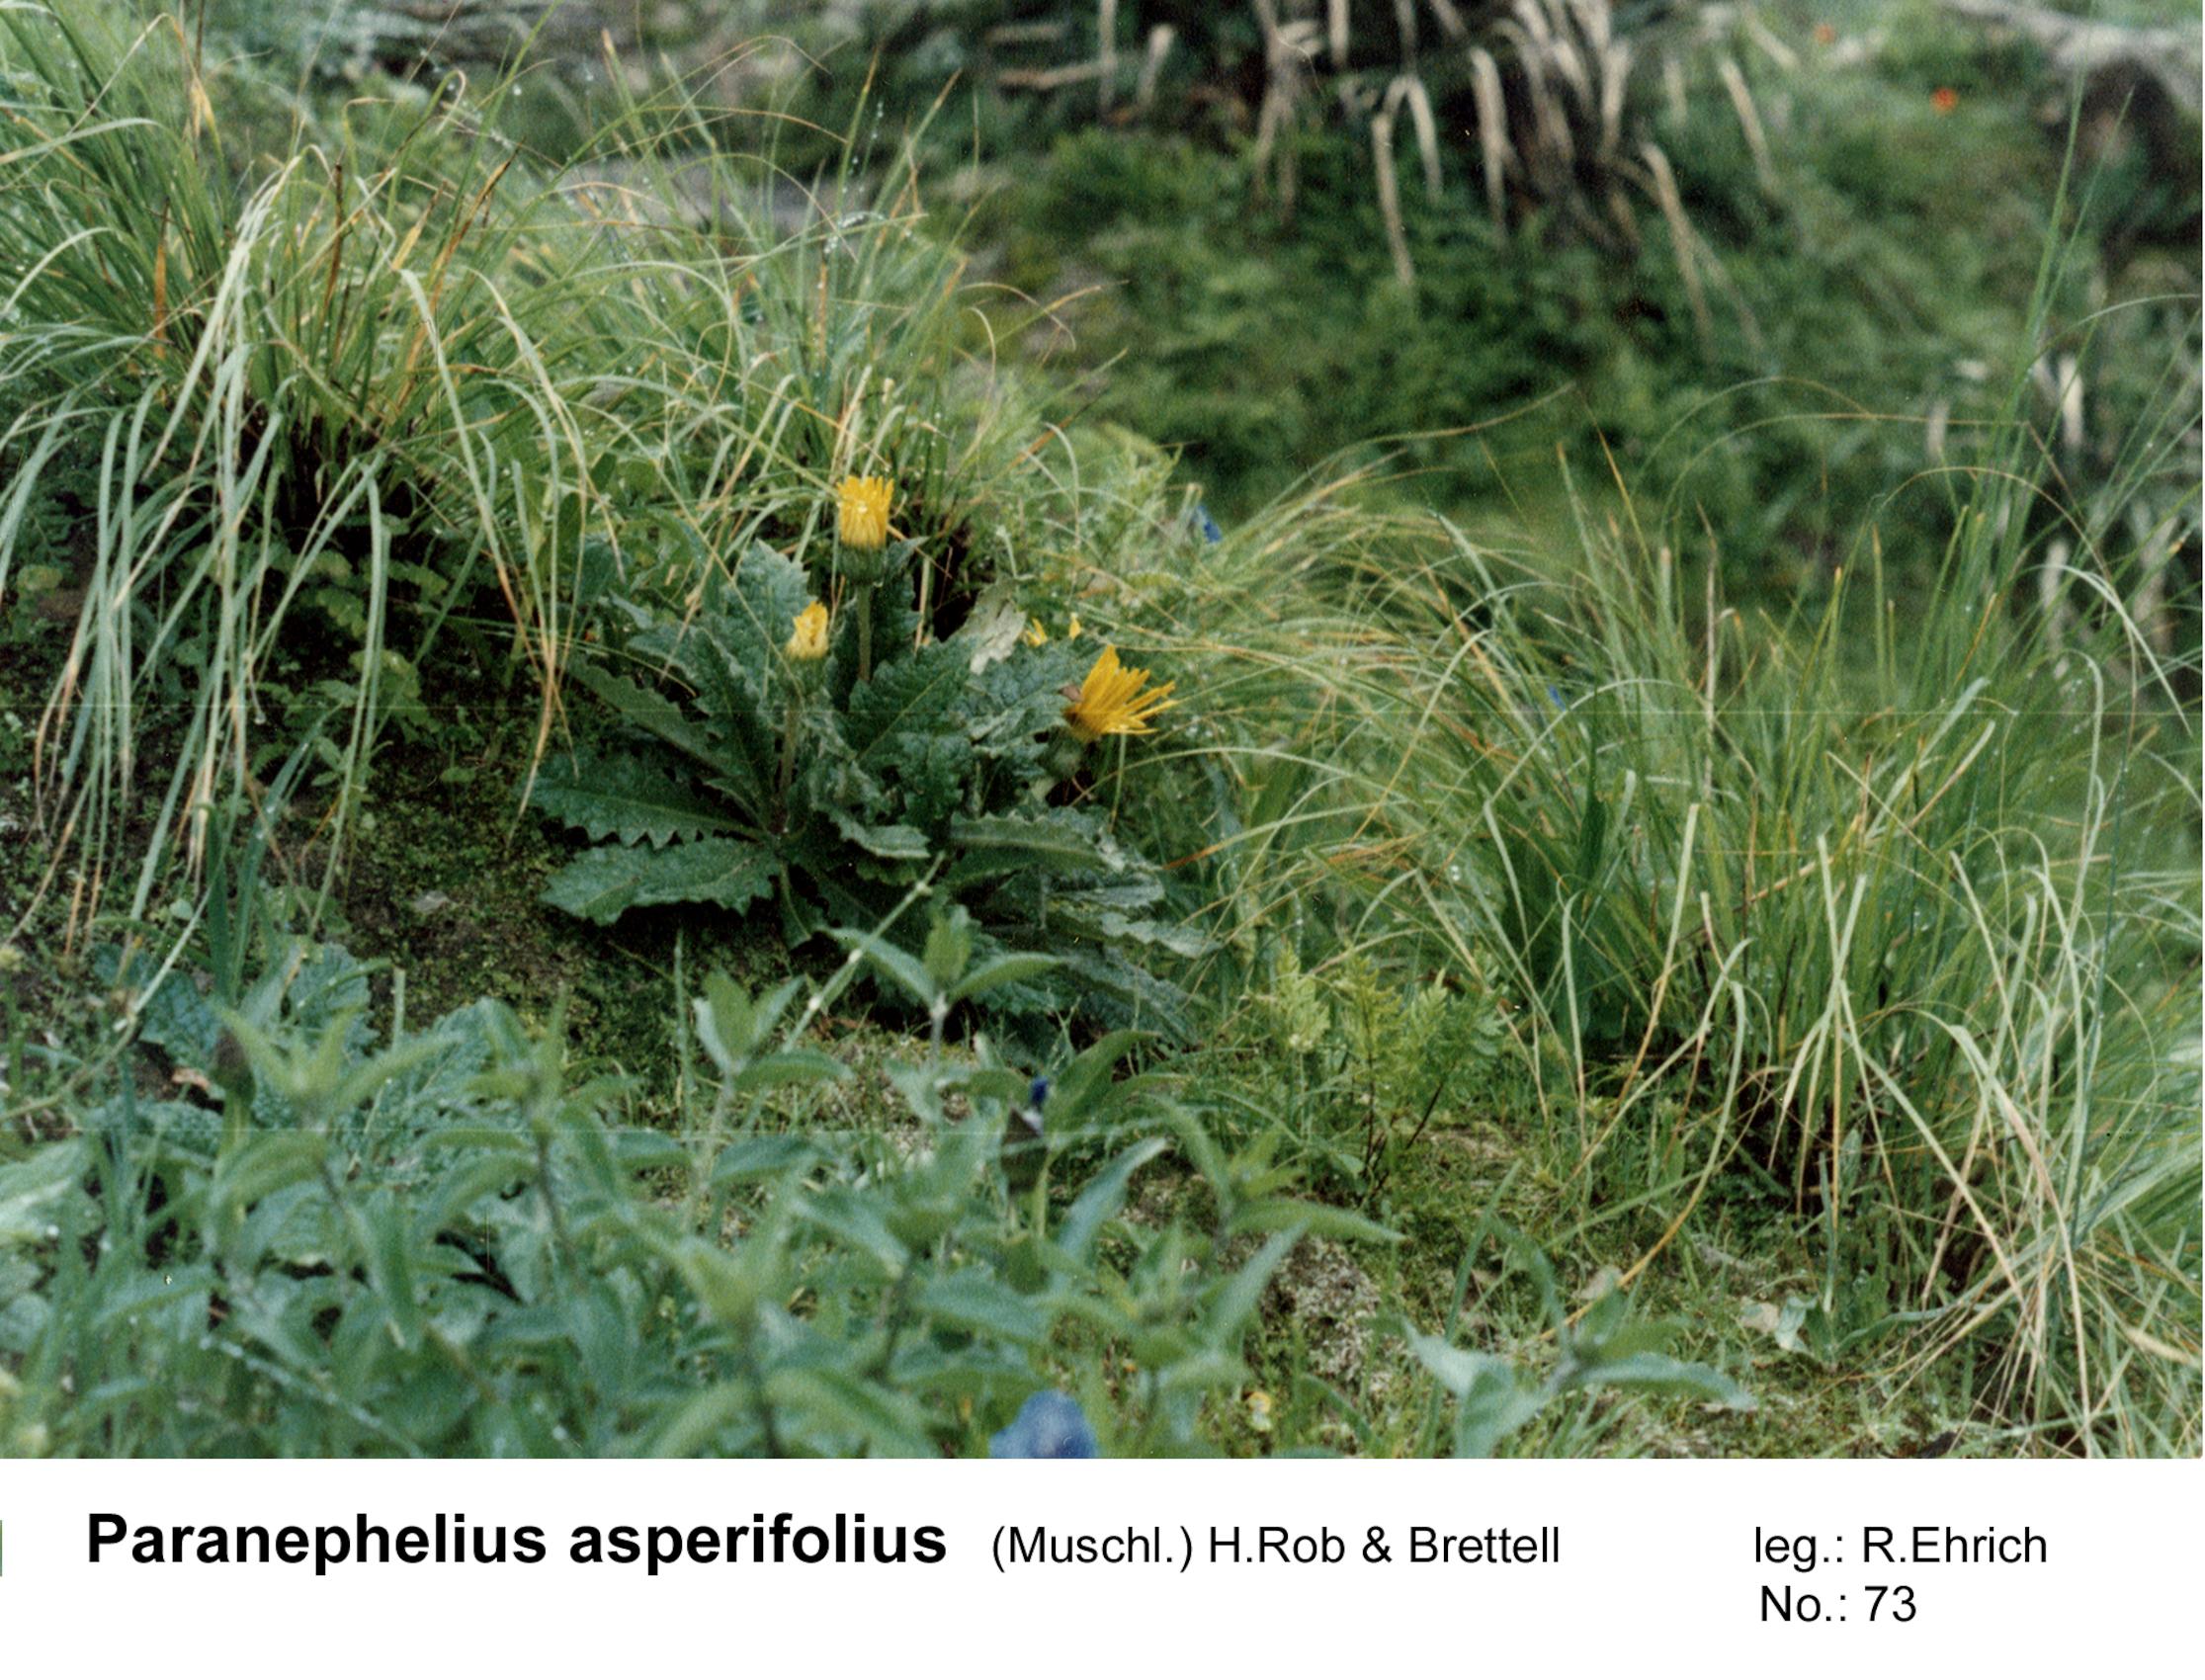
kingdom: Plantae
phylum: Tracheophyta
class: Magnoliopsida
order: Asterales
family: Asteraceae
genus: Paranephelius
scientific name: Paranephelius asperifolius
